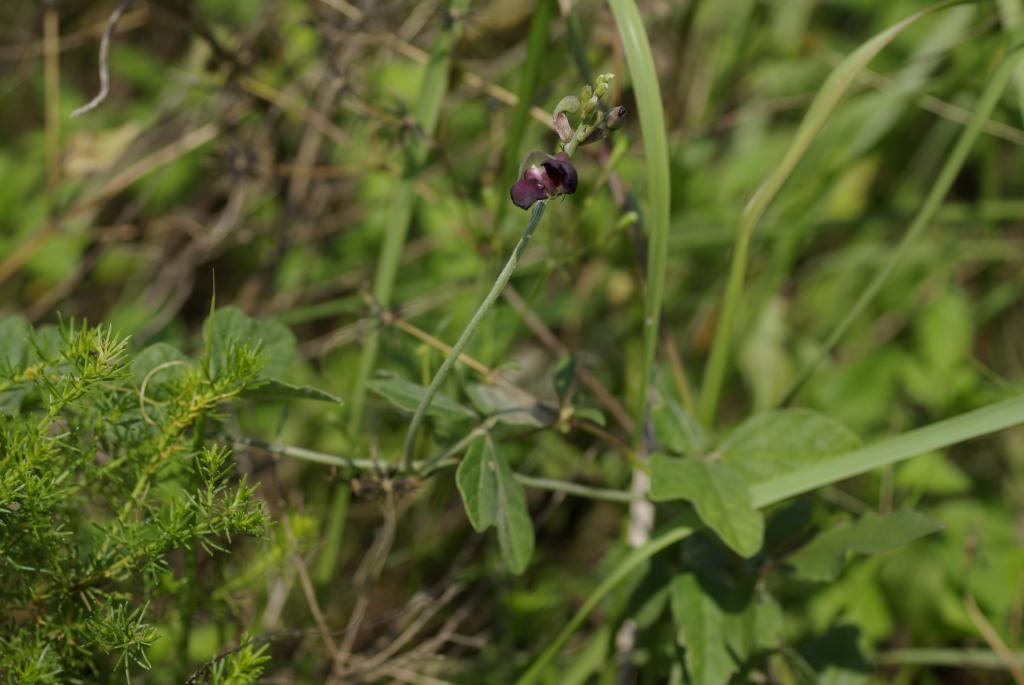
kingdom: Plantae
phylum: Tracheophyta
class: Magnoliopsida
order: Fabales
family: Fabaceae
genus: Macroptilium
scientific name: Macroptilium atropurpureum
